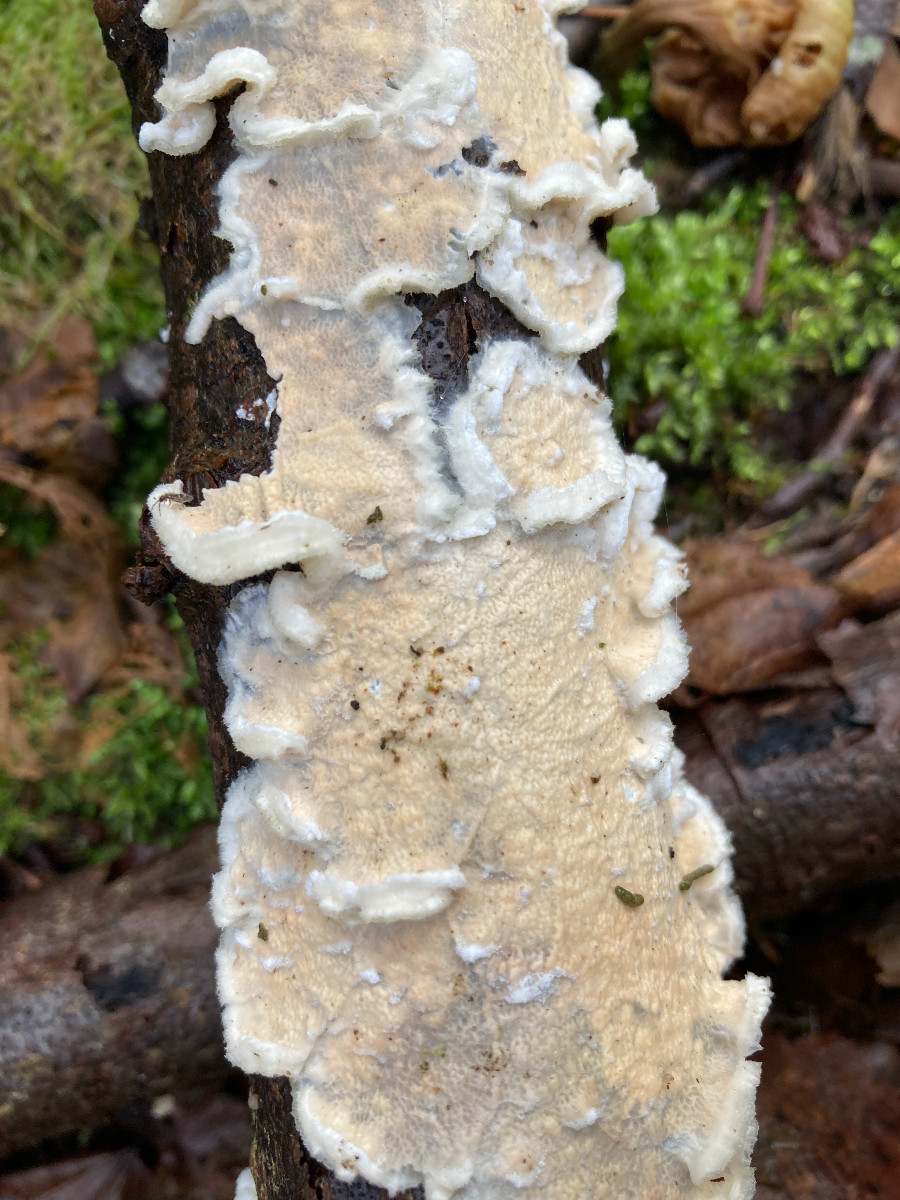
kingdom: Fungi
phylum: Basidiomycota
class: Agaricomycetes
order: Polyporales
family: Irpicaceae
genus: Byssomerulius
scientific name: Byssomerulius corium
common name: læder-åresvamp
